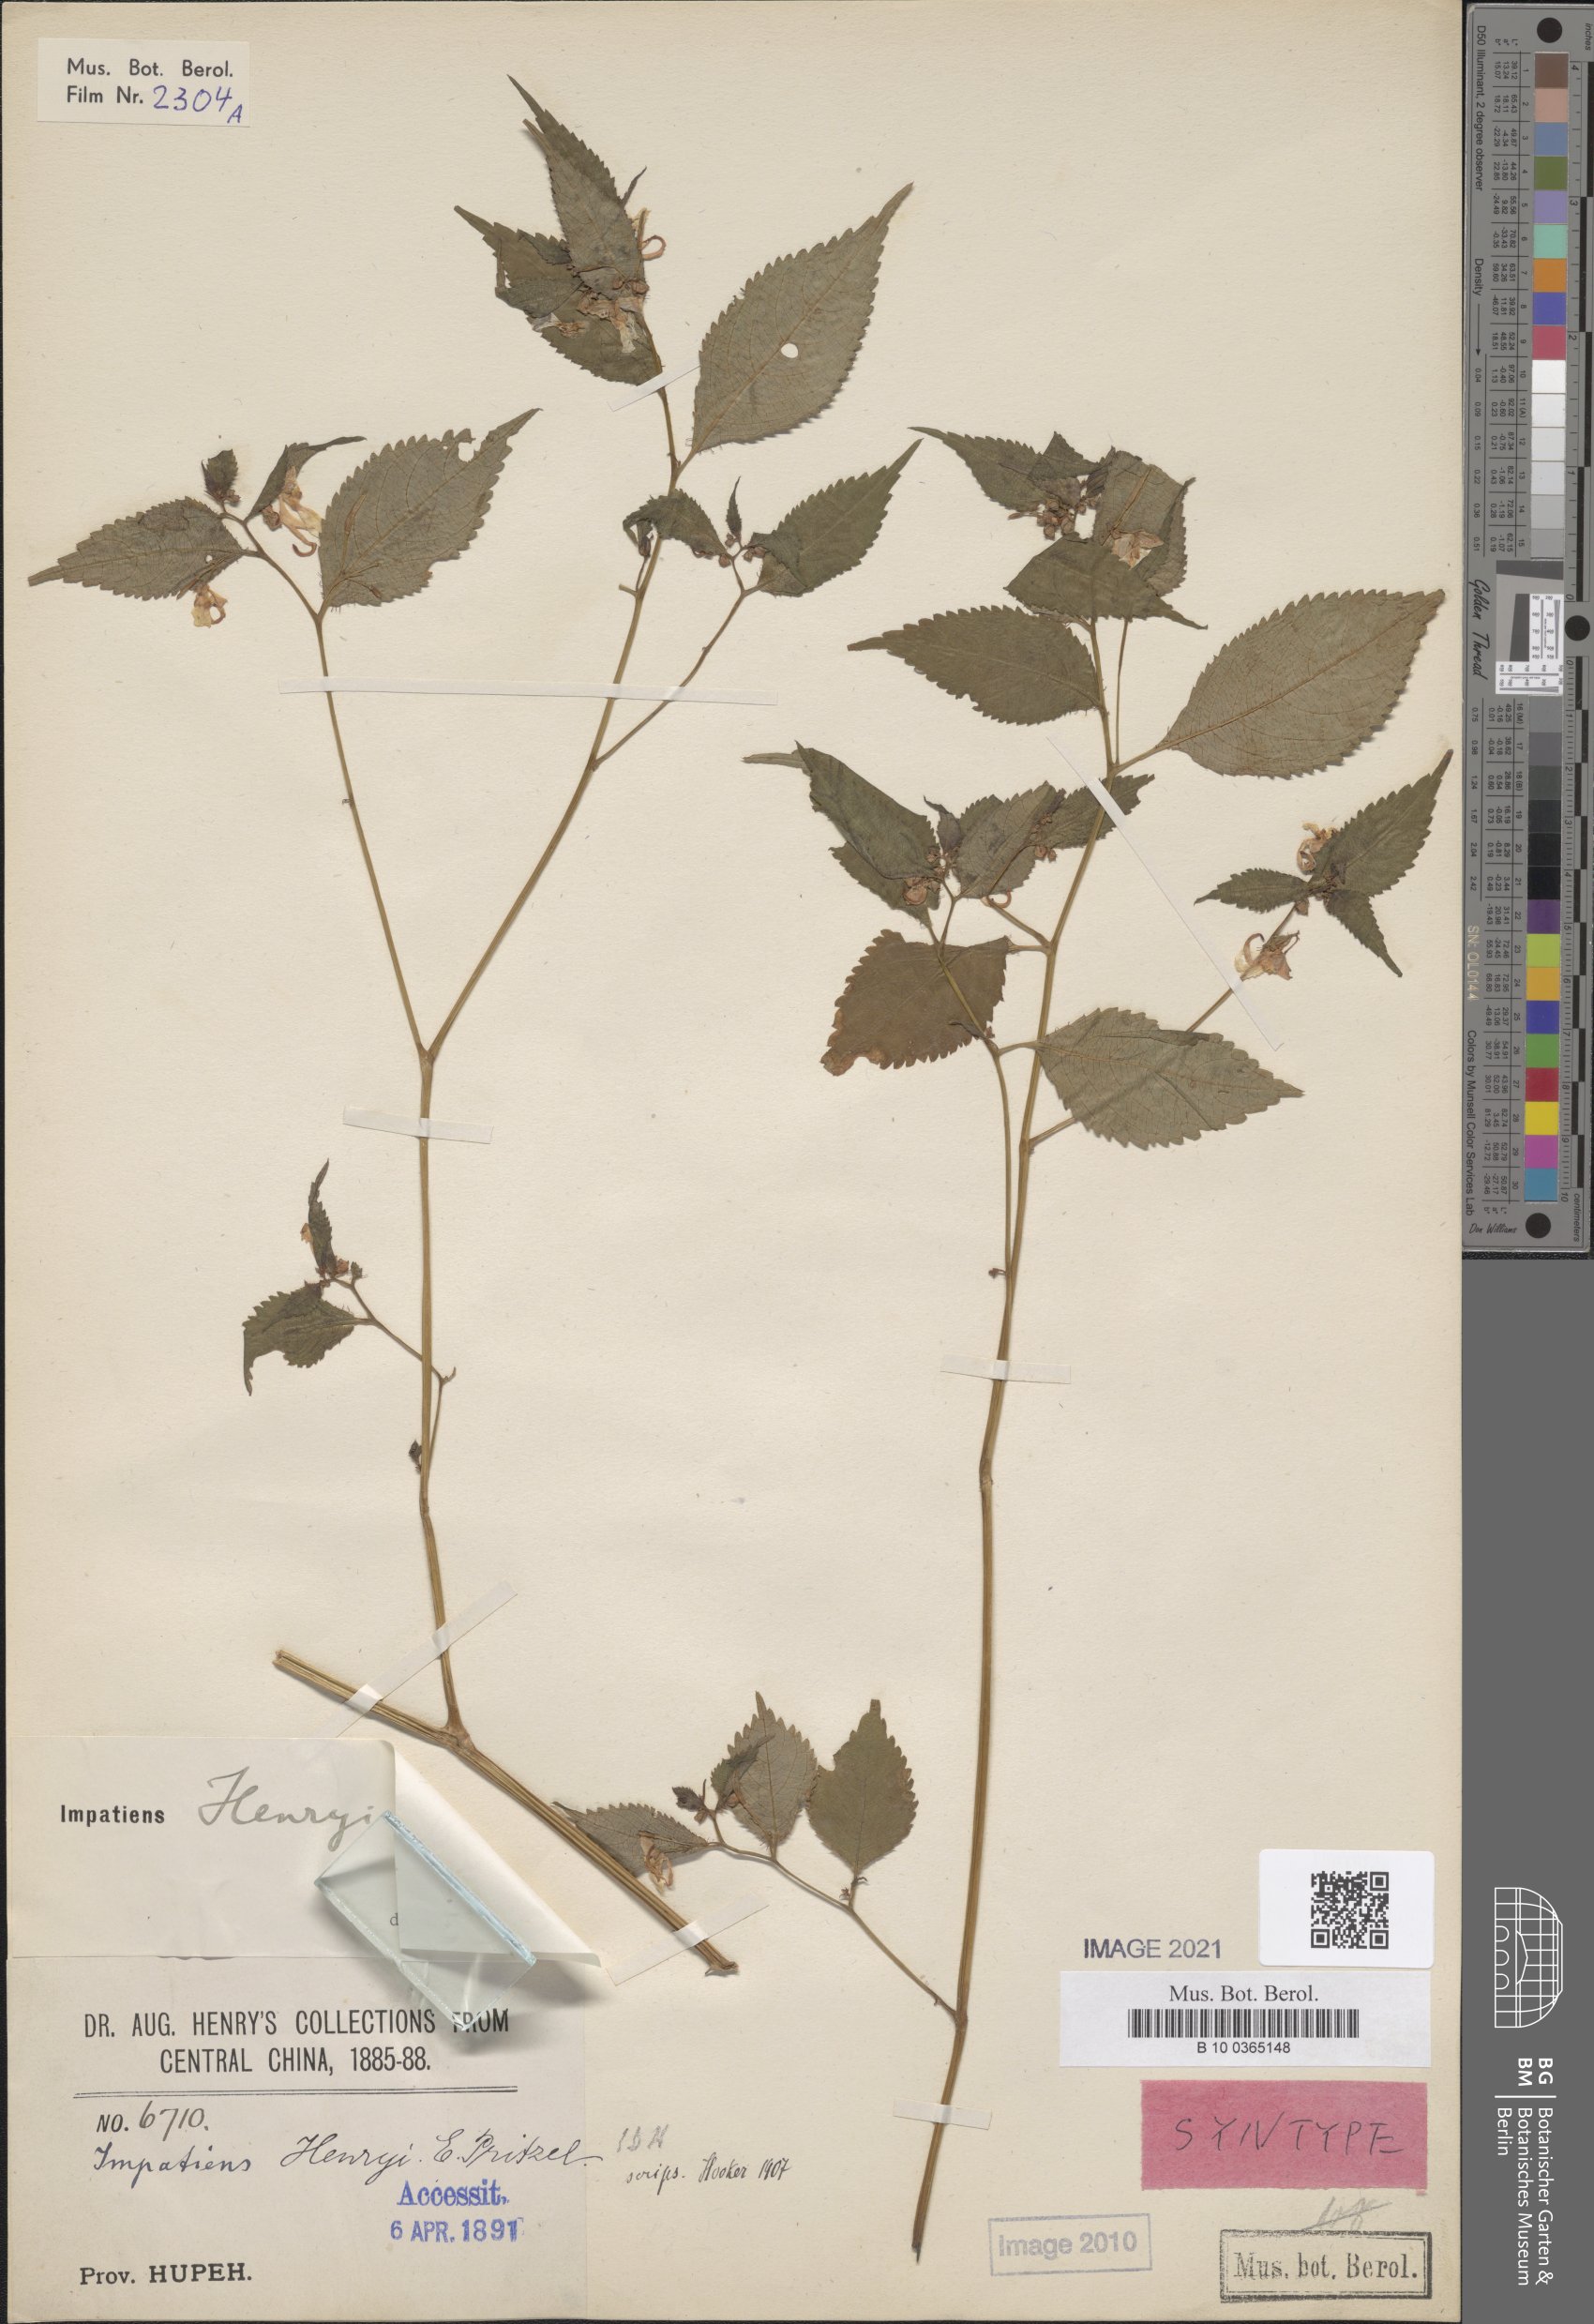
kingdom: Plantae
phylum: Tracheophyta
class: Magnoliopsida
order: Ericales
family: Balsaminaceae
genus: Impatiens
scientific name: Impatiens henryi
